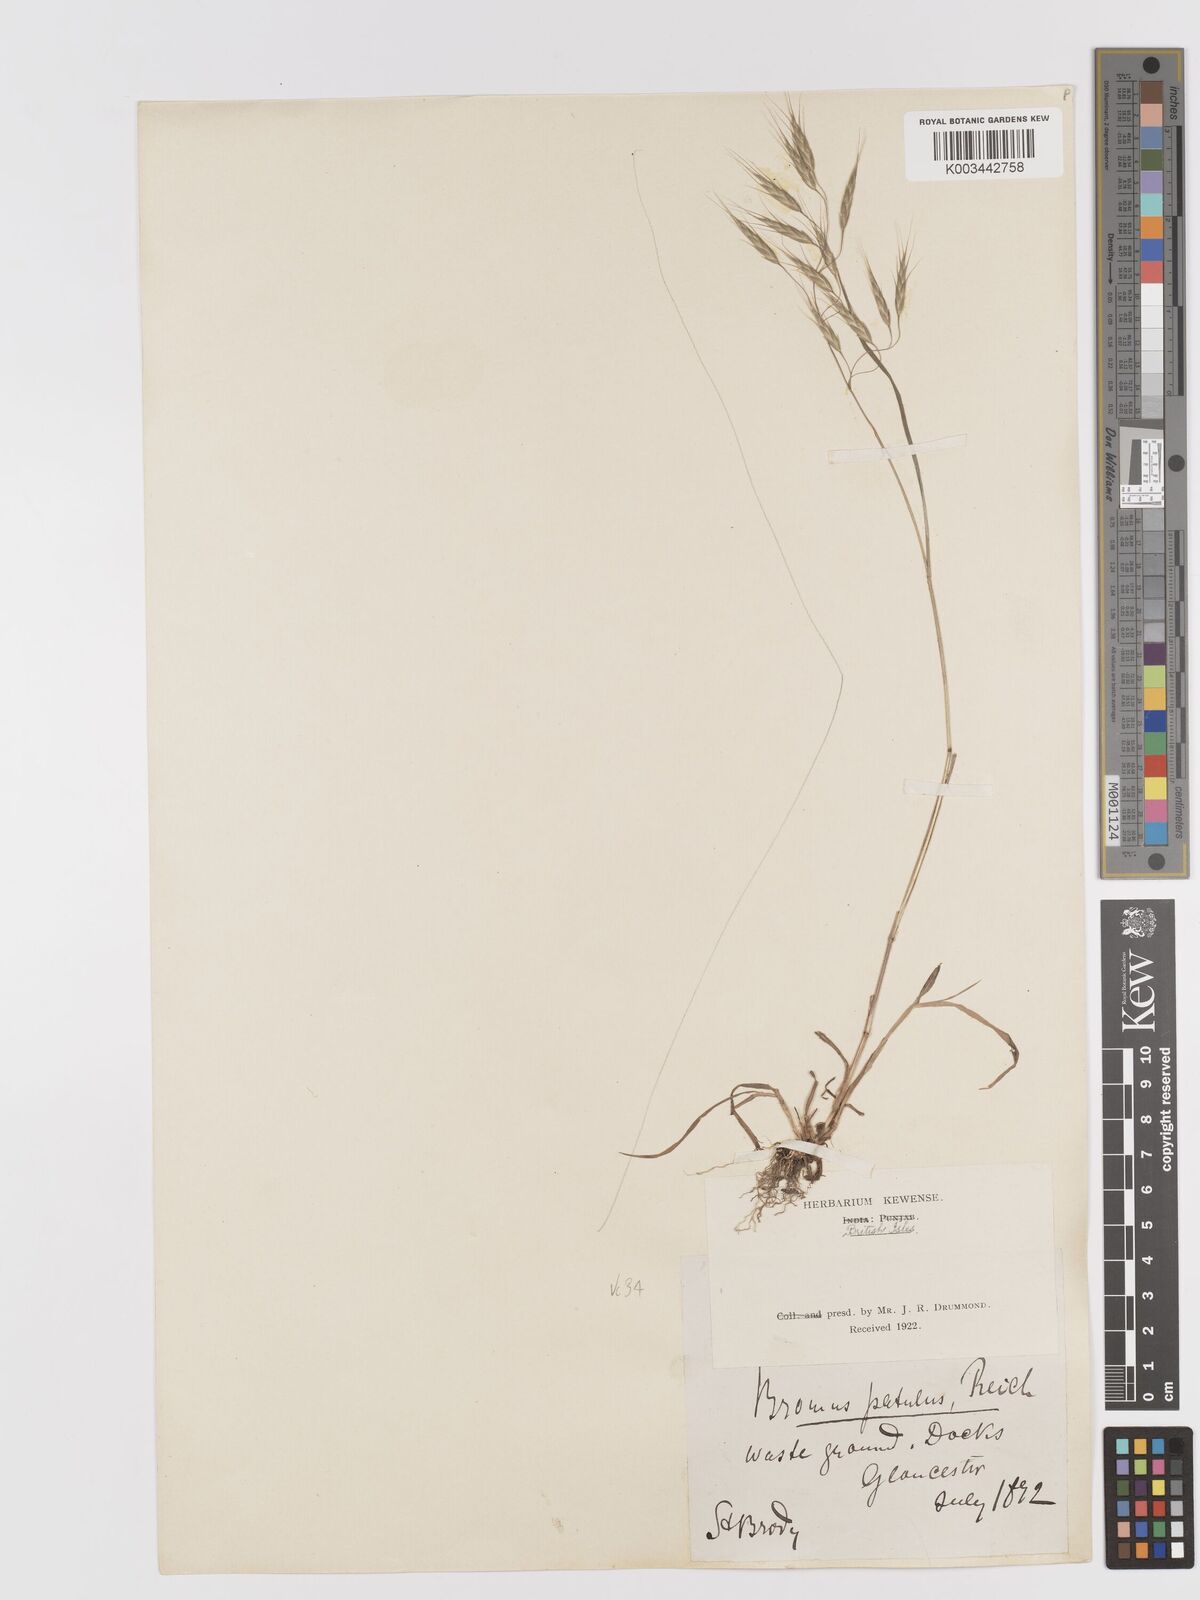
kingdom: Plantae
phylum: Tracheophyta
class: Liliopsida
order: Poales
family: Poaceae
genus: Bromus
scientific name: Bromus japonicus
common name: Japanese brome
